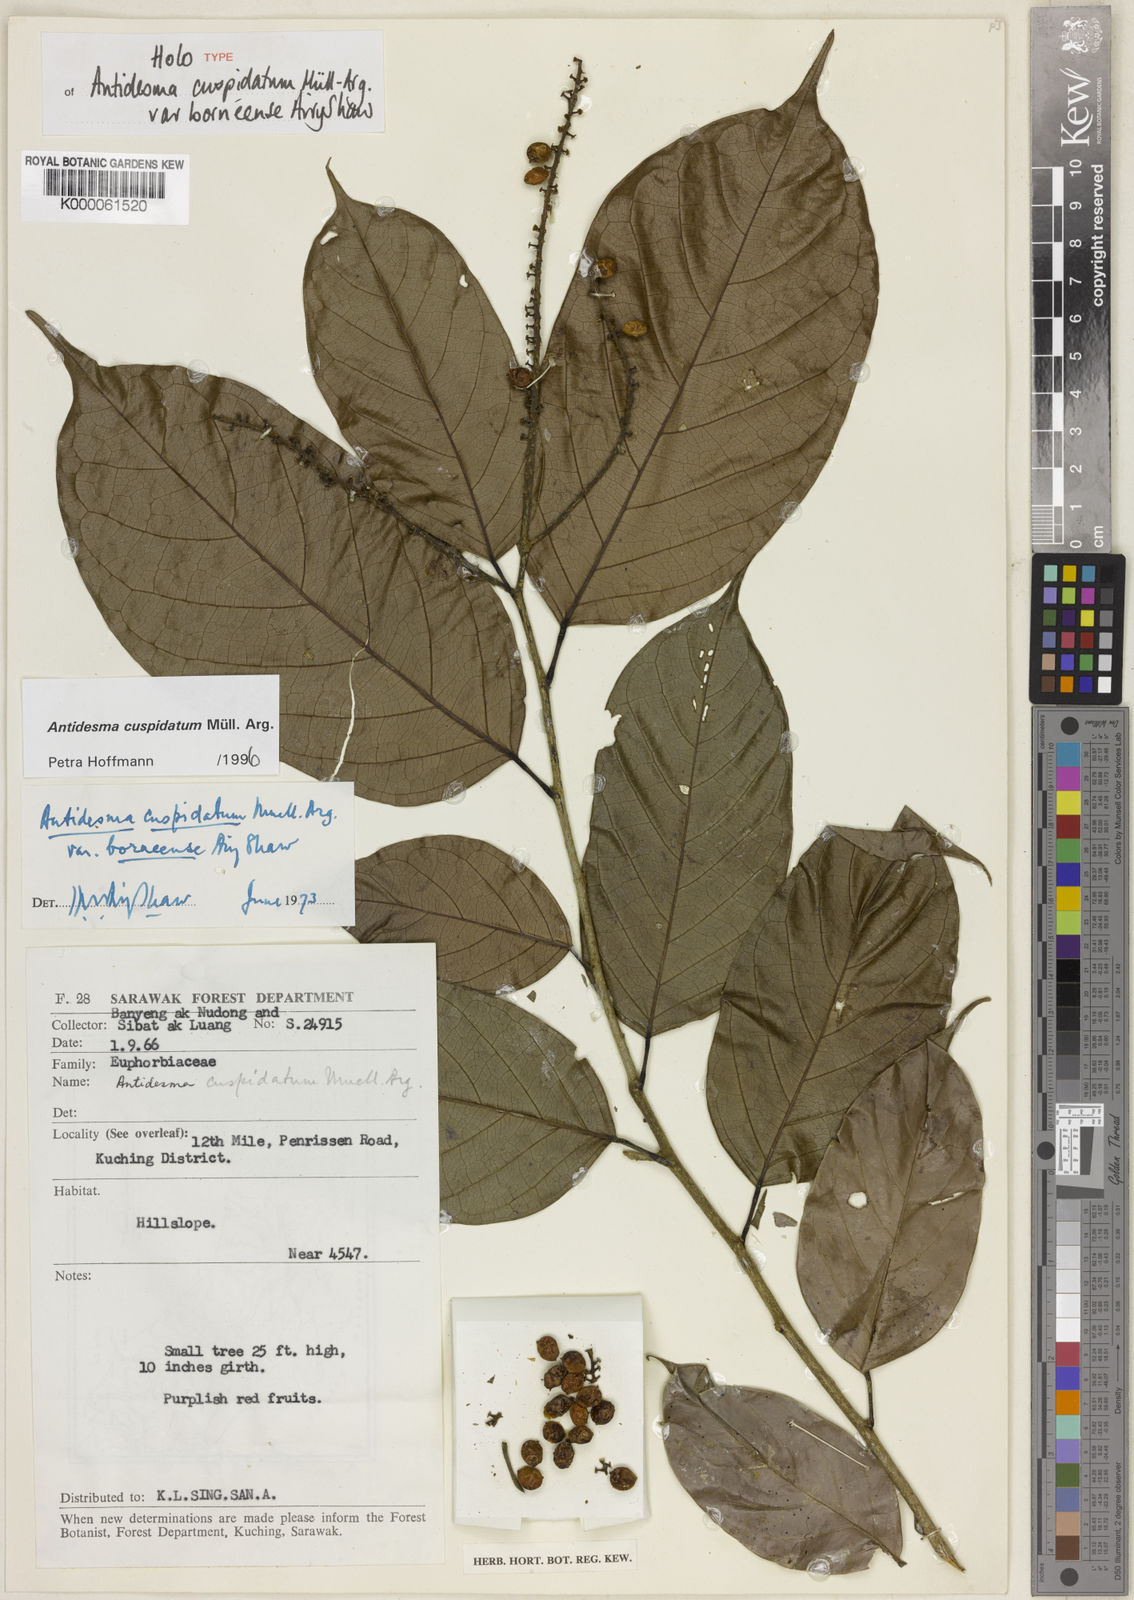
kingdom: Plantae
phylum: Tracheophyta
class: Magnoliopsida
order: Malpighiales
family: Phyllanthaceae
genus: Antidesma
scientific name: Antidesma
